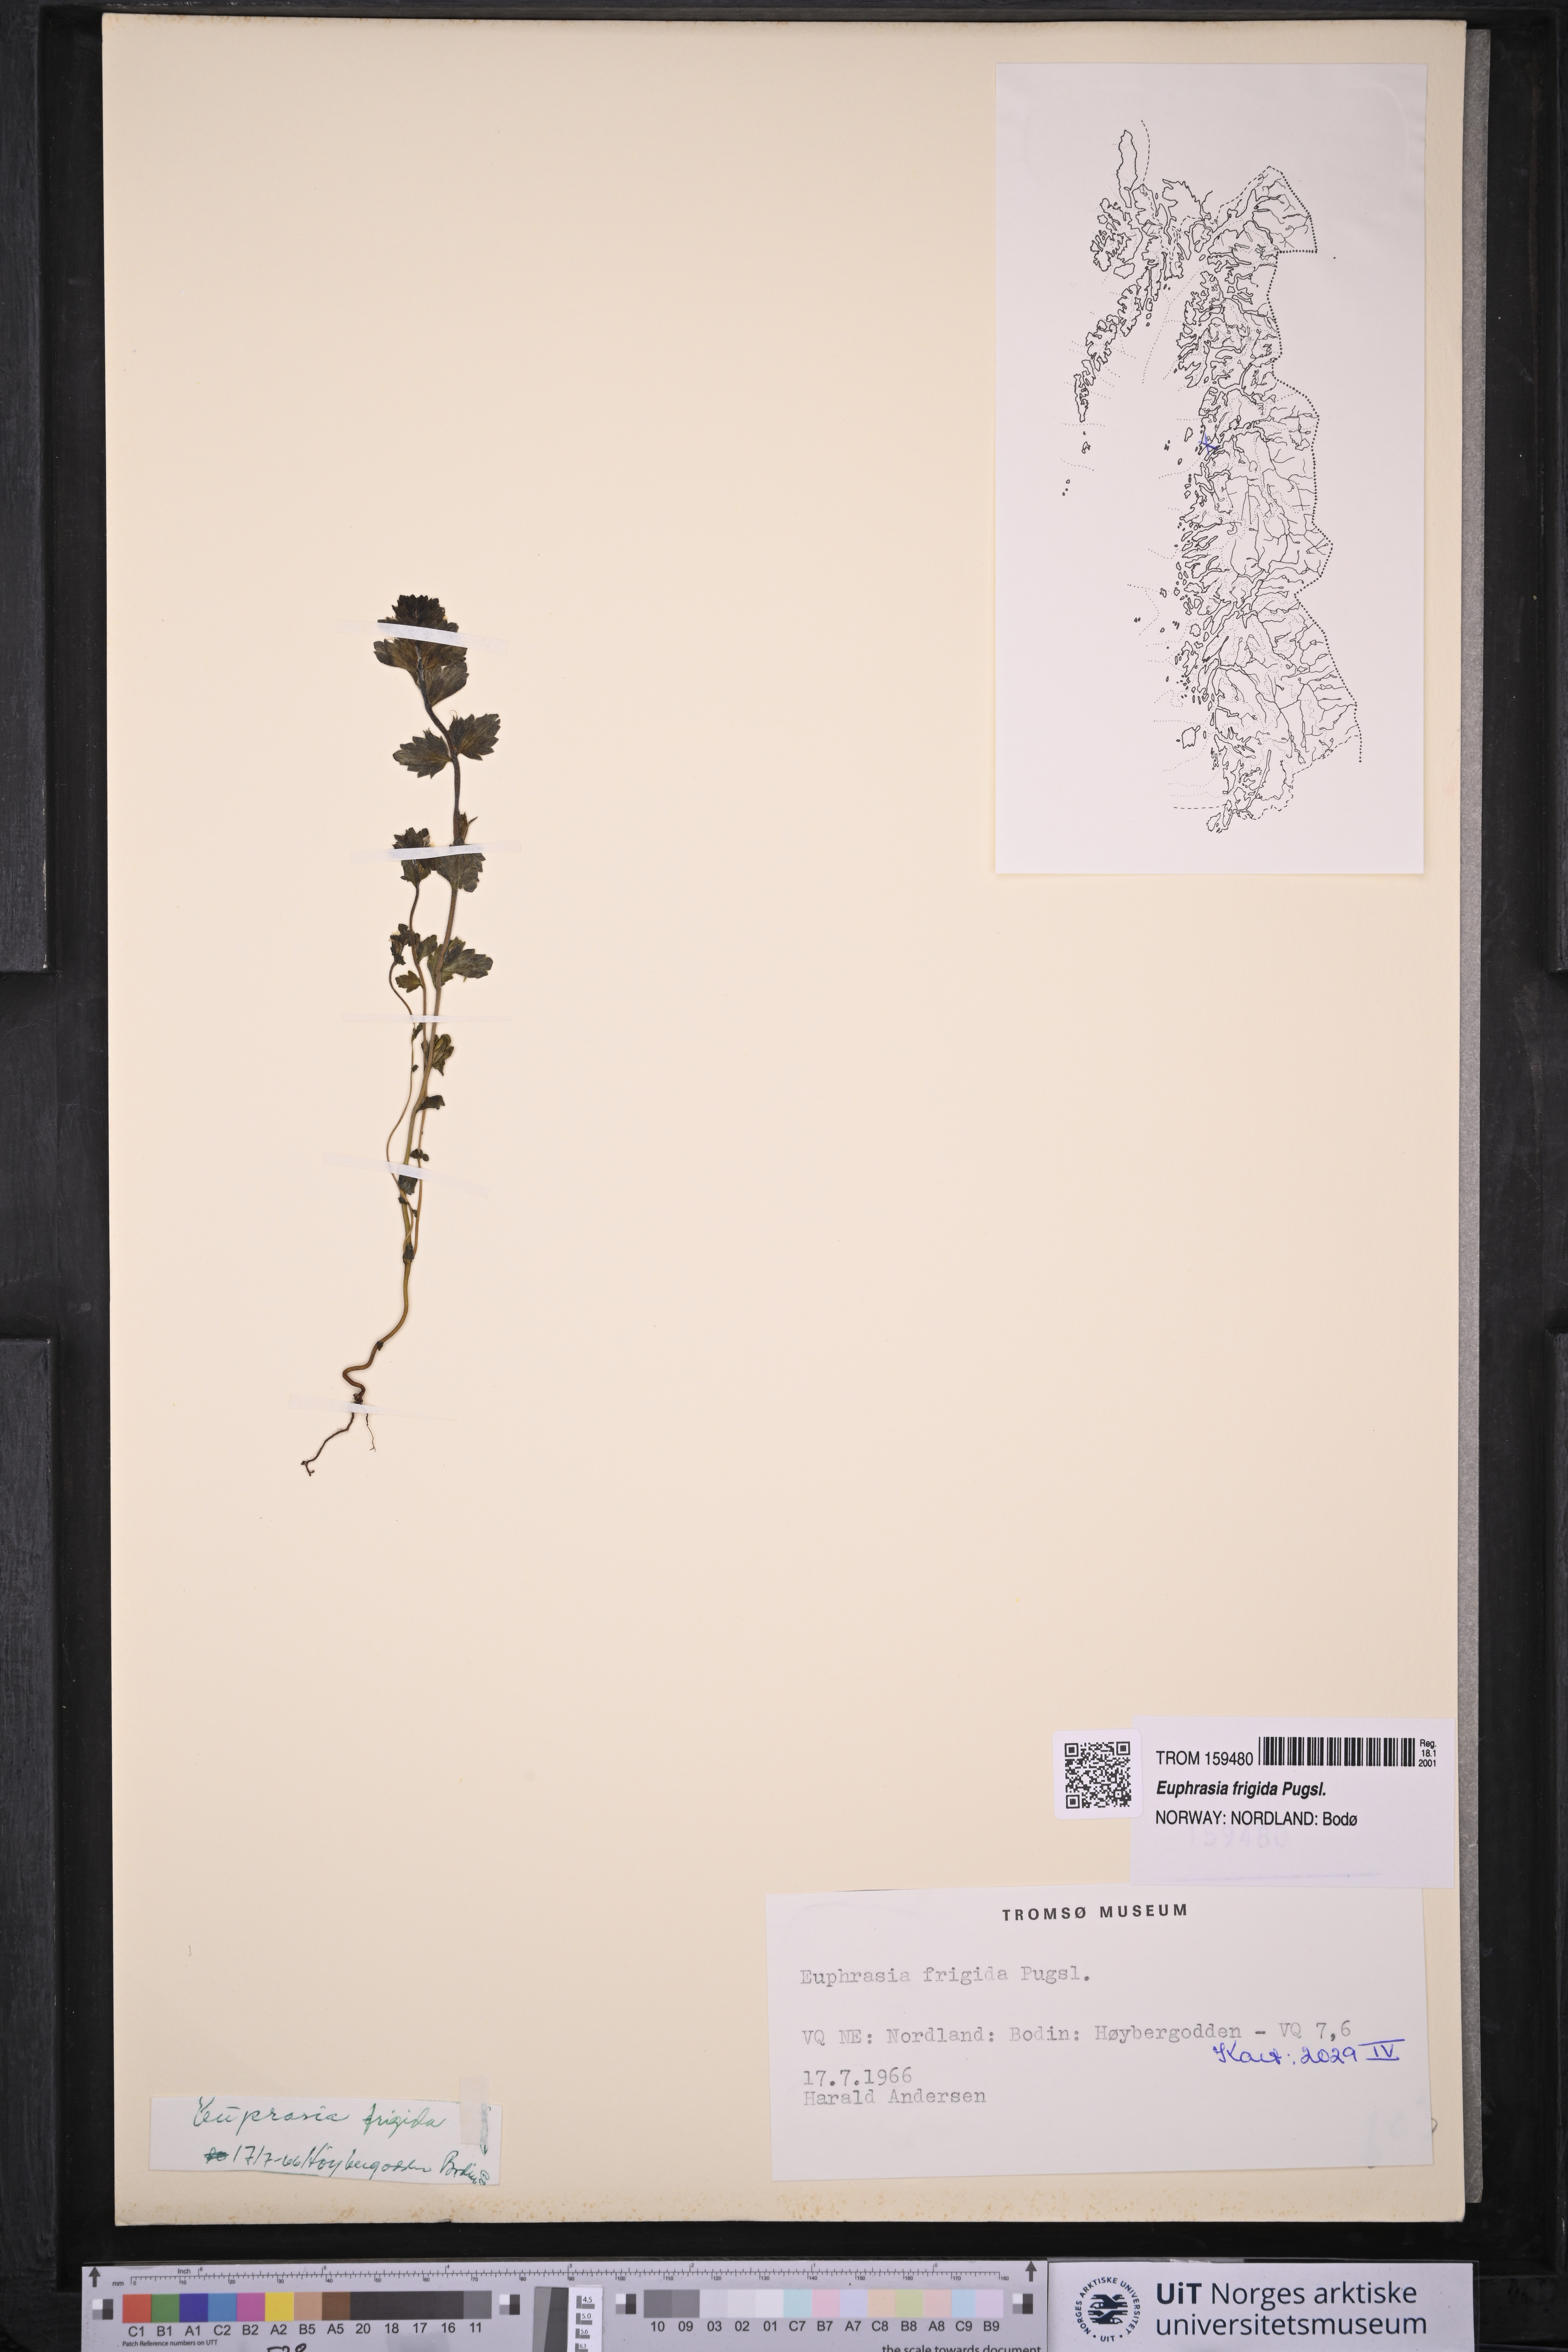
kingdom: Plantae
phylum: Tracheophyta
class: Magnoliopsida
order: Lamiales
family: Orobanchaceae
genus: Euphrasia
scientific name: Euphrasia frigida
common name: An eyebright
